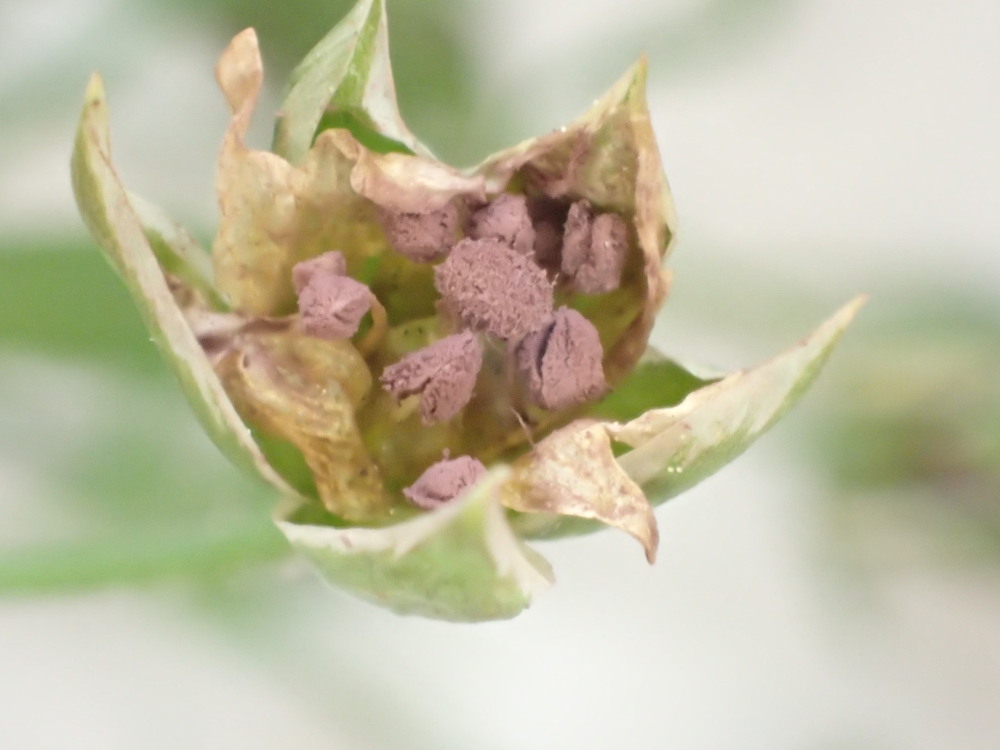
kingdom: Fungi
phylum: Basidiomycota
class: Microbotryomycetes
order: Microbotryales
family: Microbotryaceae
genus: Microbotryum
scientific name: Microbotryum stellariae
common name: fladstjerne-støvbladrust
